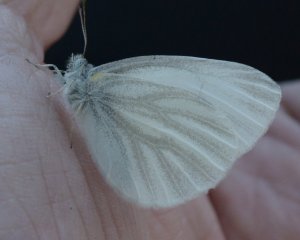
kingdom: Animalia
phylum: Arthropoda
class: Insecta
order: Lepidoptera
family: Pieridae
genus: Pieris
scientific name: Pieris virginiensis
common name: West Virginia White
